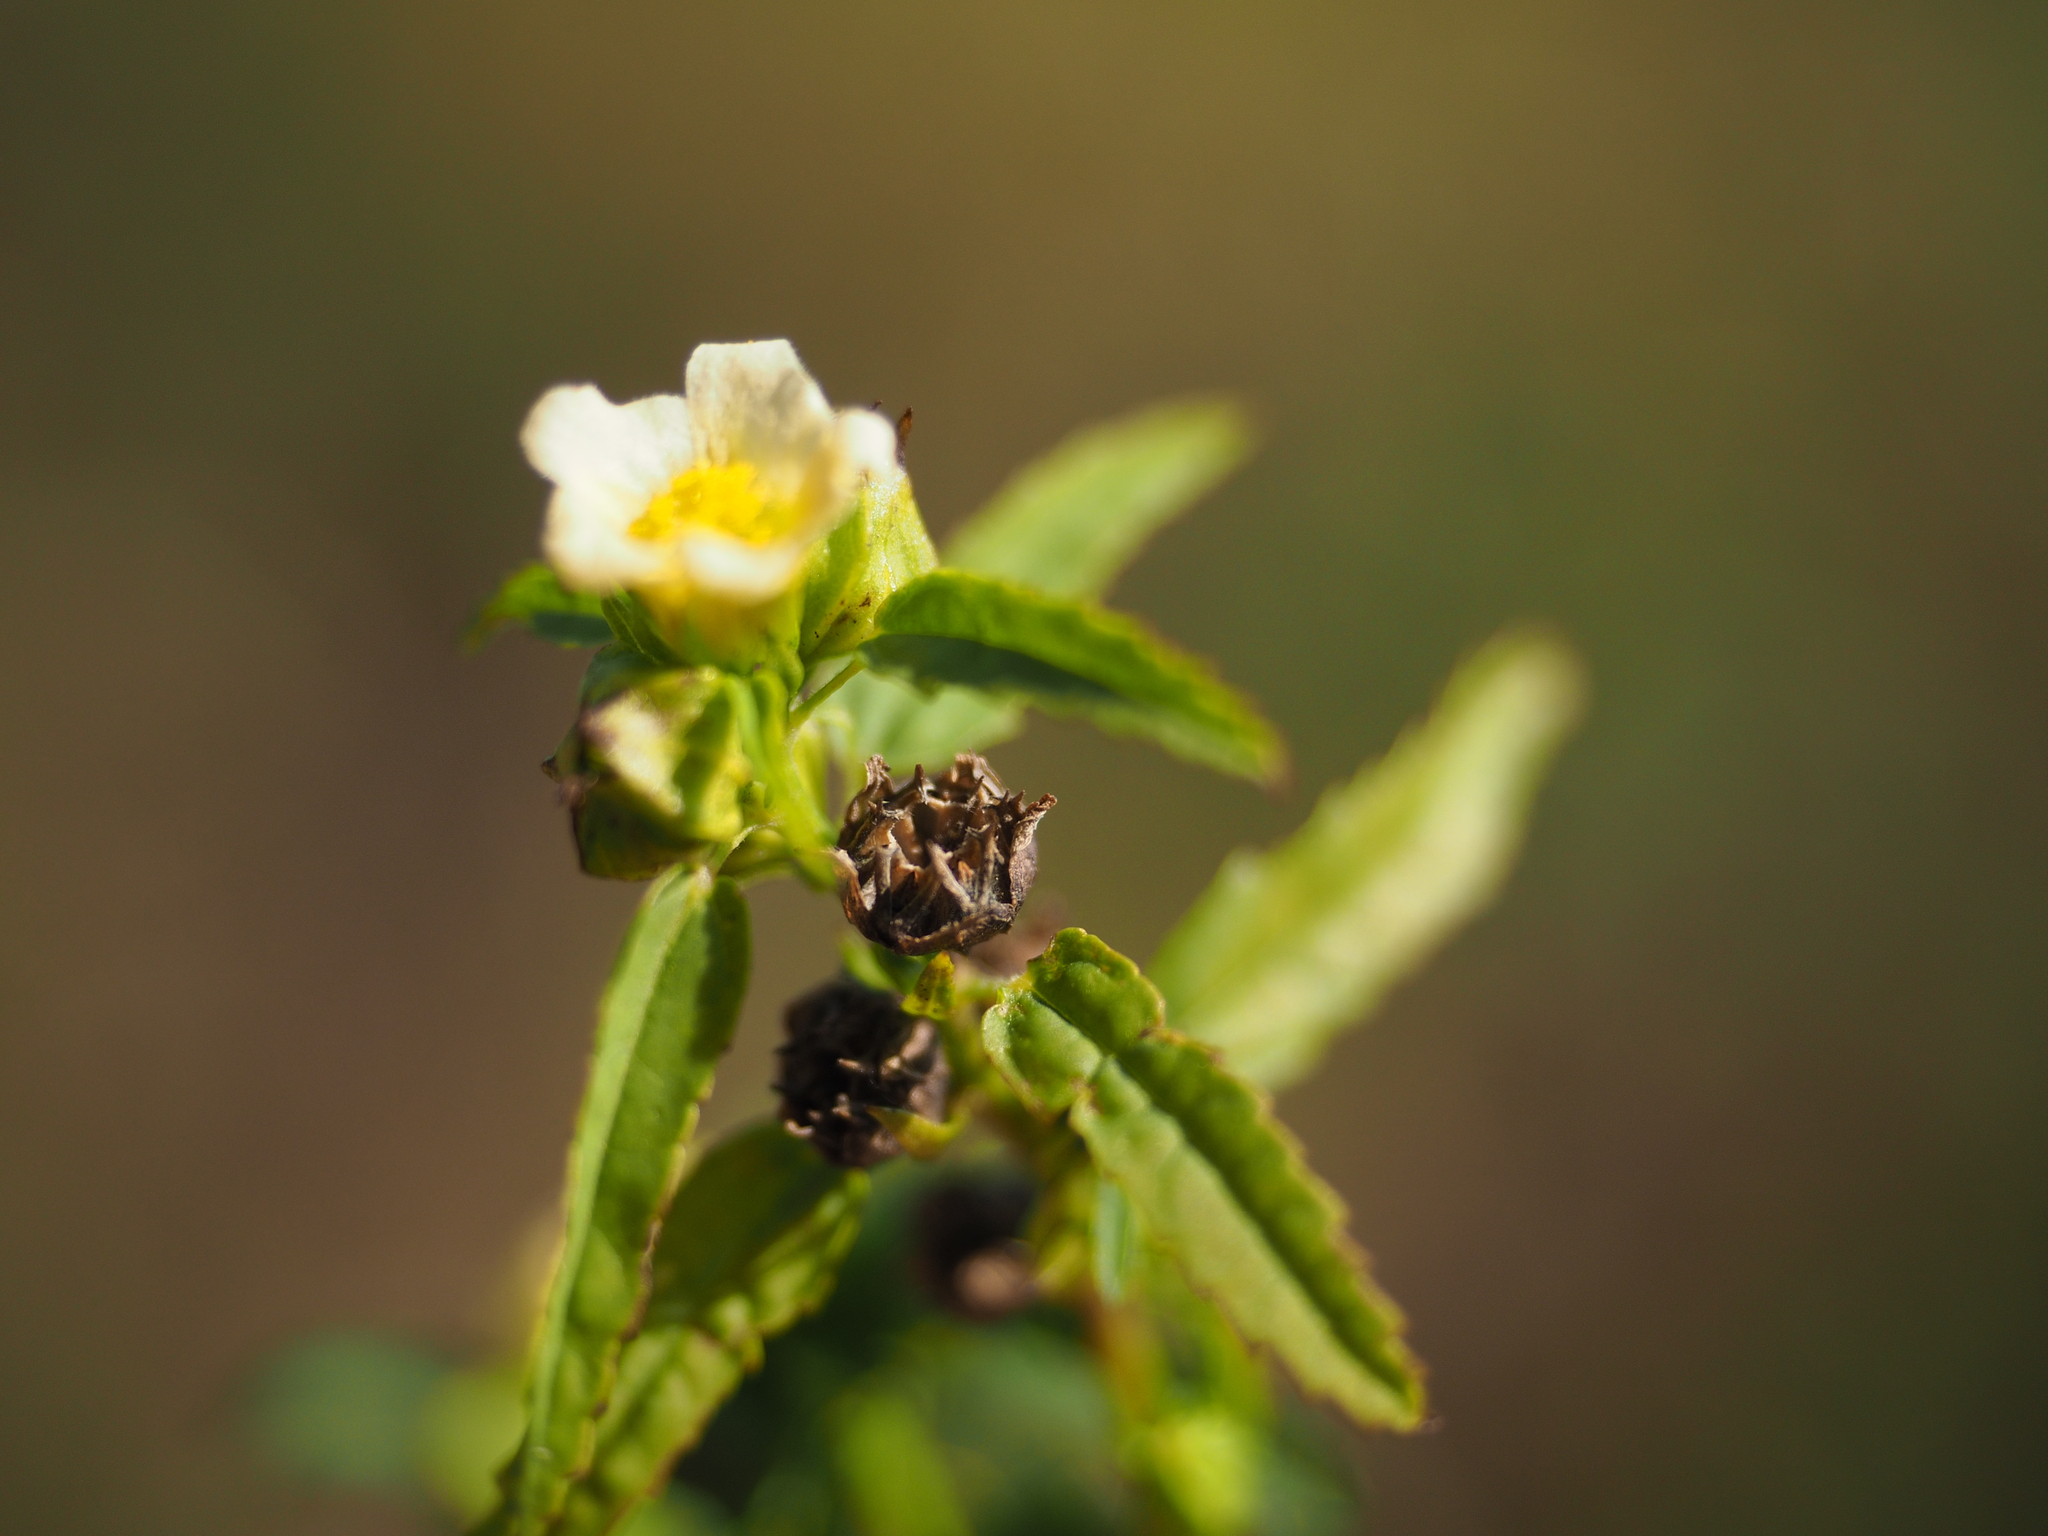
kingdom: Plantae
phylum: Tracheophyta
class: Magnoliopsida
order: Malvales
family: Malvaceae
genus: Sida
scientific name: Sida spinosa
